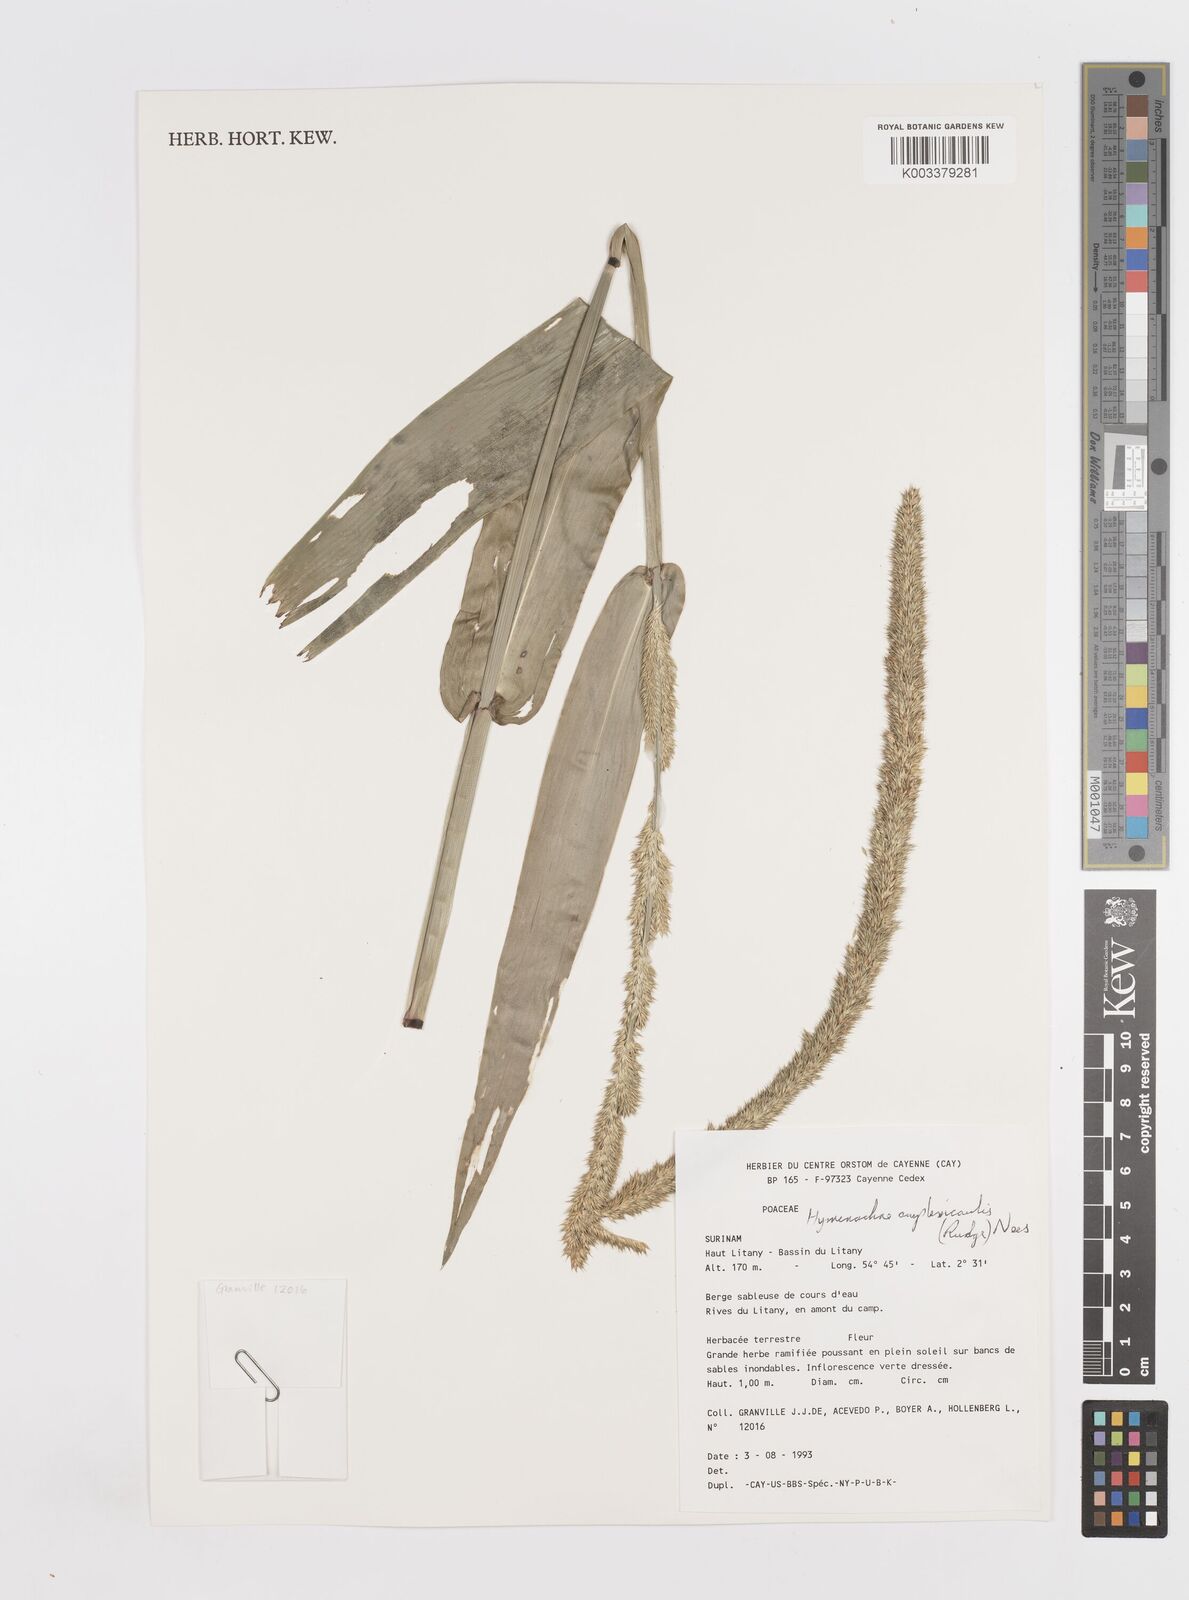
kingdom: Plantae
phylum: Tracheophyta
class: Liliopsida
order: Poales
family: Poaceae
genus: Hymenachne
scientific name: Hymenachne amplexicaulis
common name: Olive hymenachne
